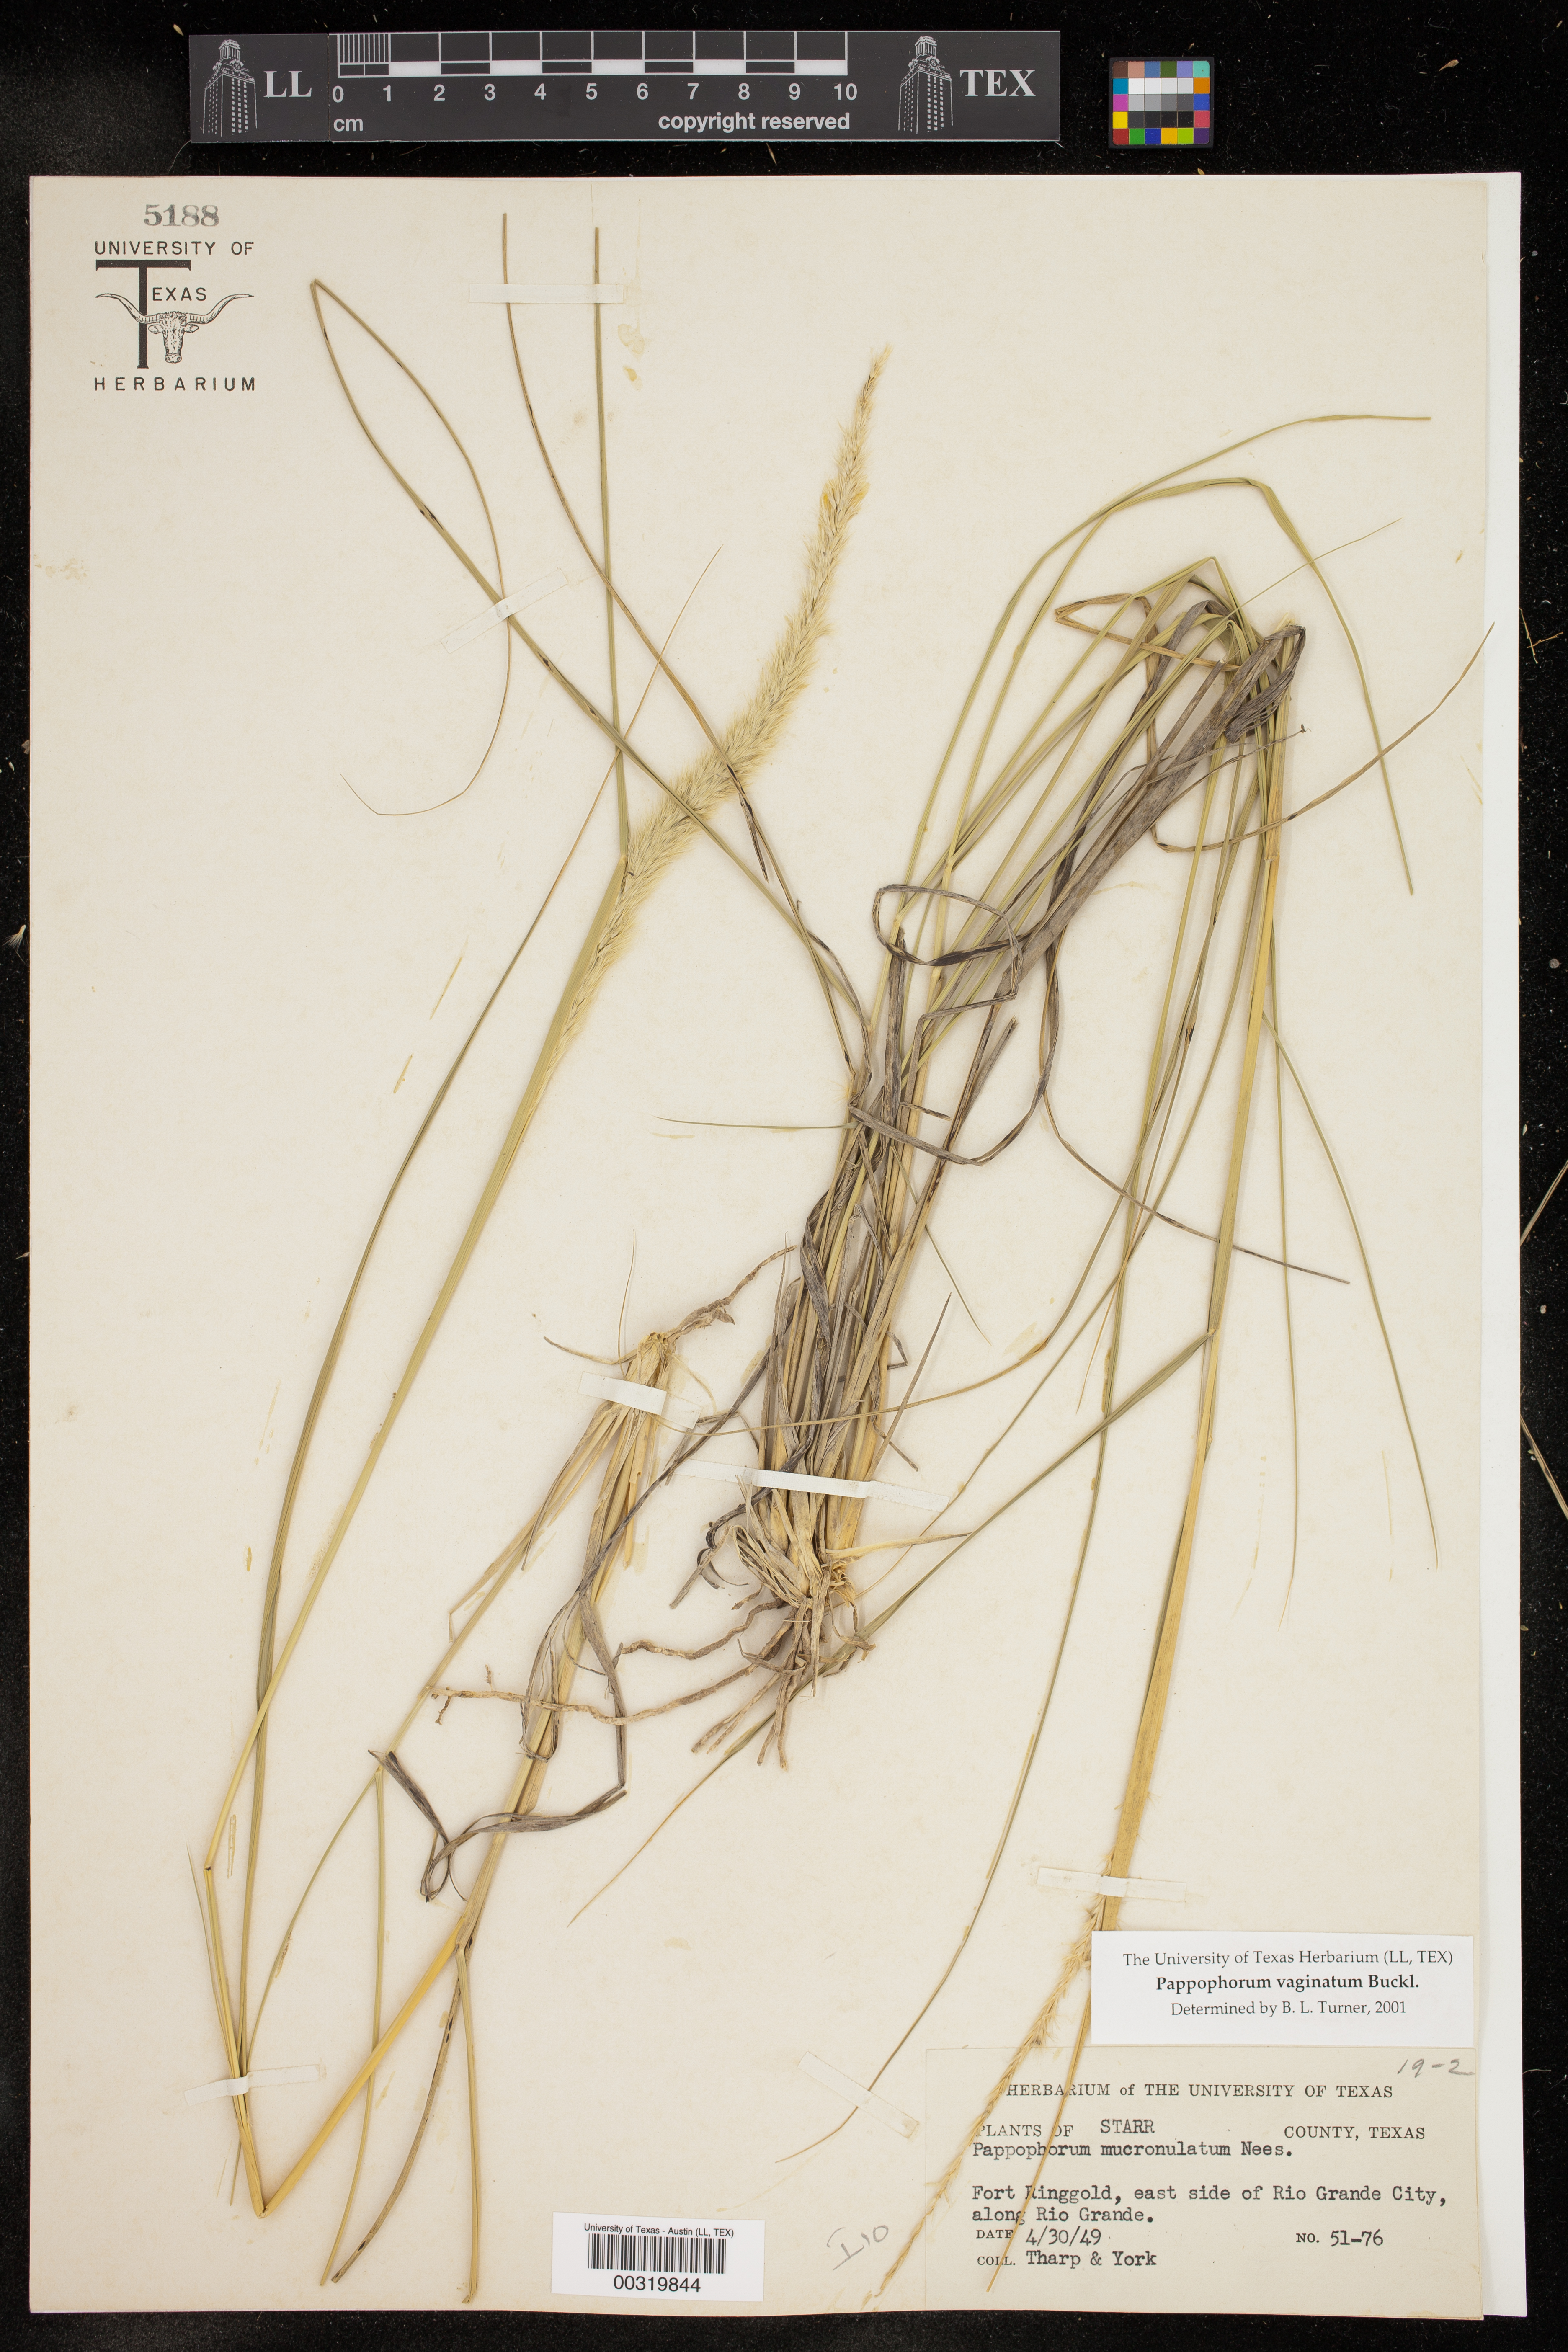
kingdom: Plantae
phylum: Tracheophyta
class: Liliopsida
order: Poales
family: Poaceae
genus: Pappophorum
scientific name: Pappophorum
